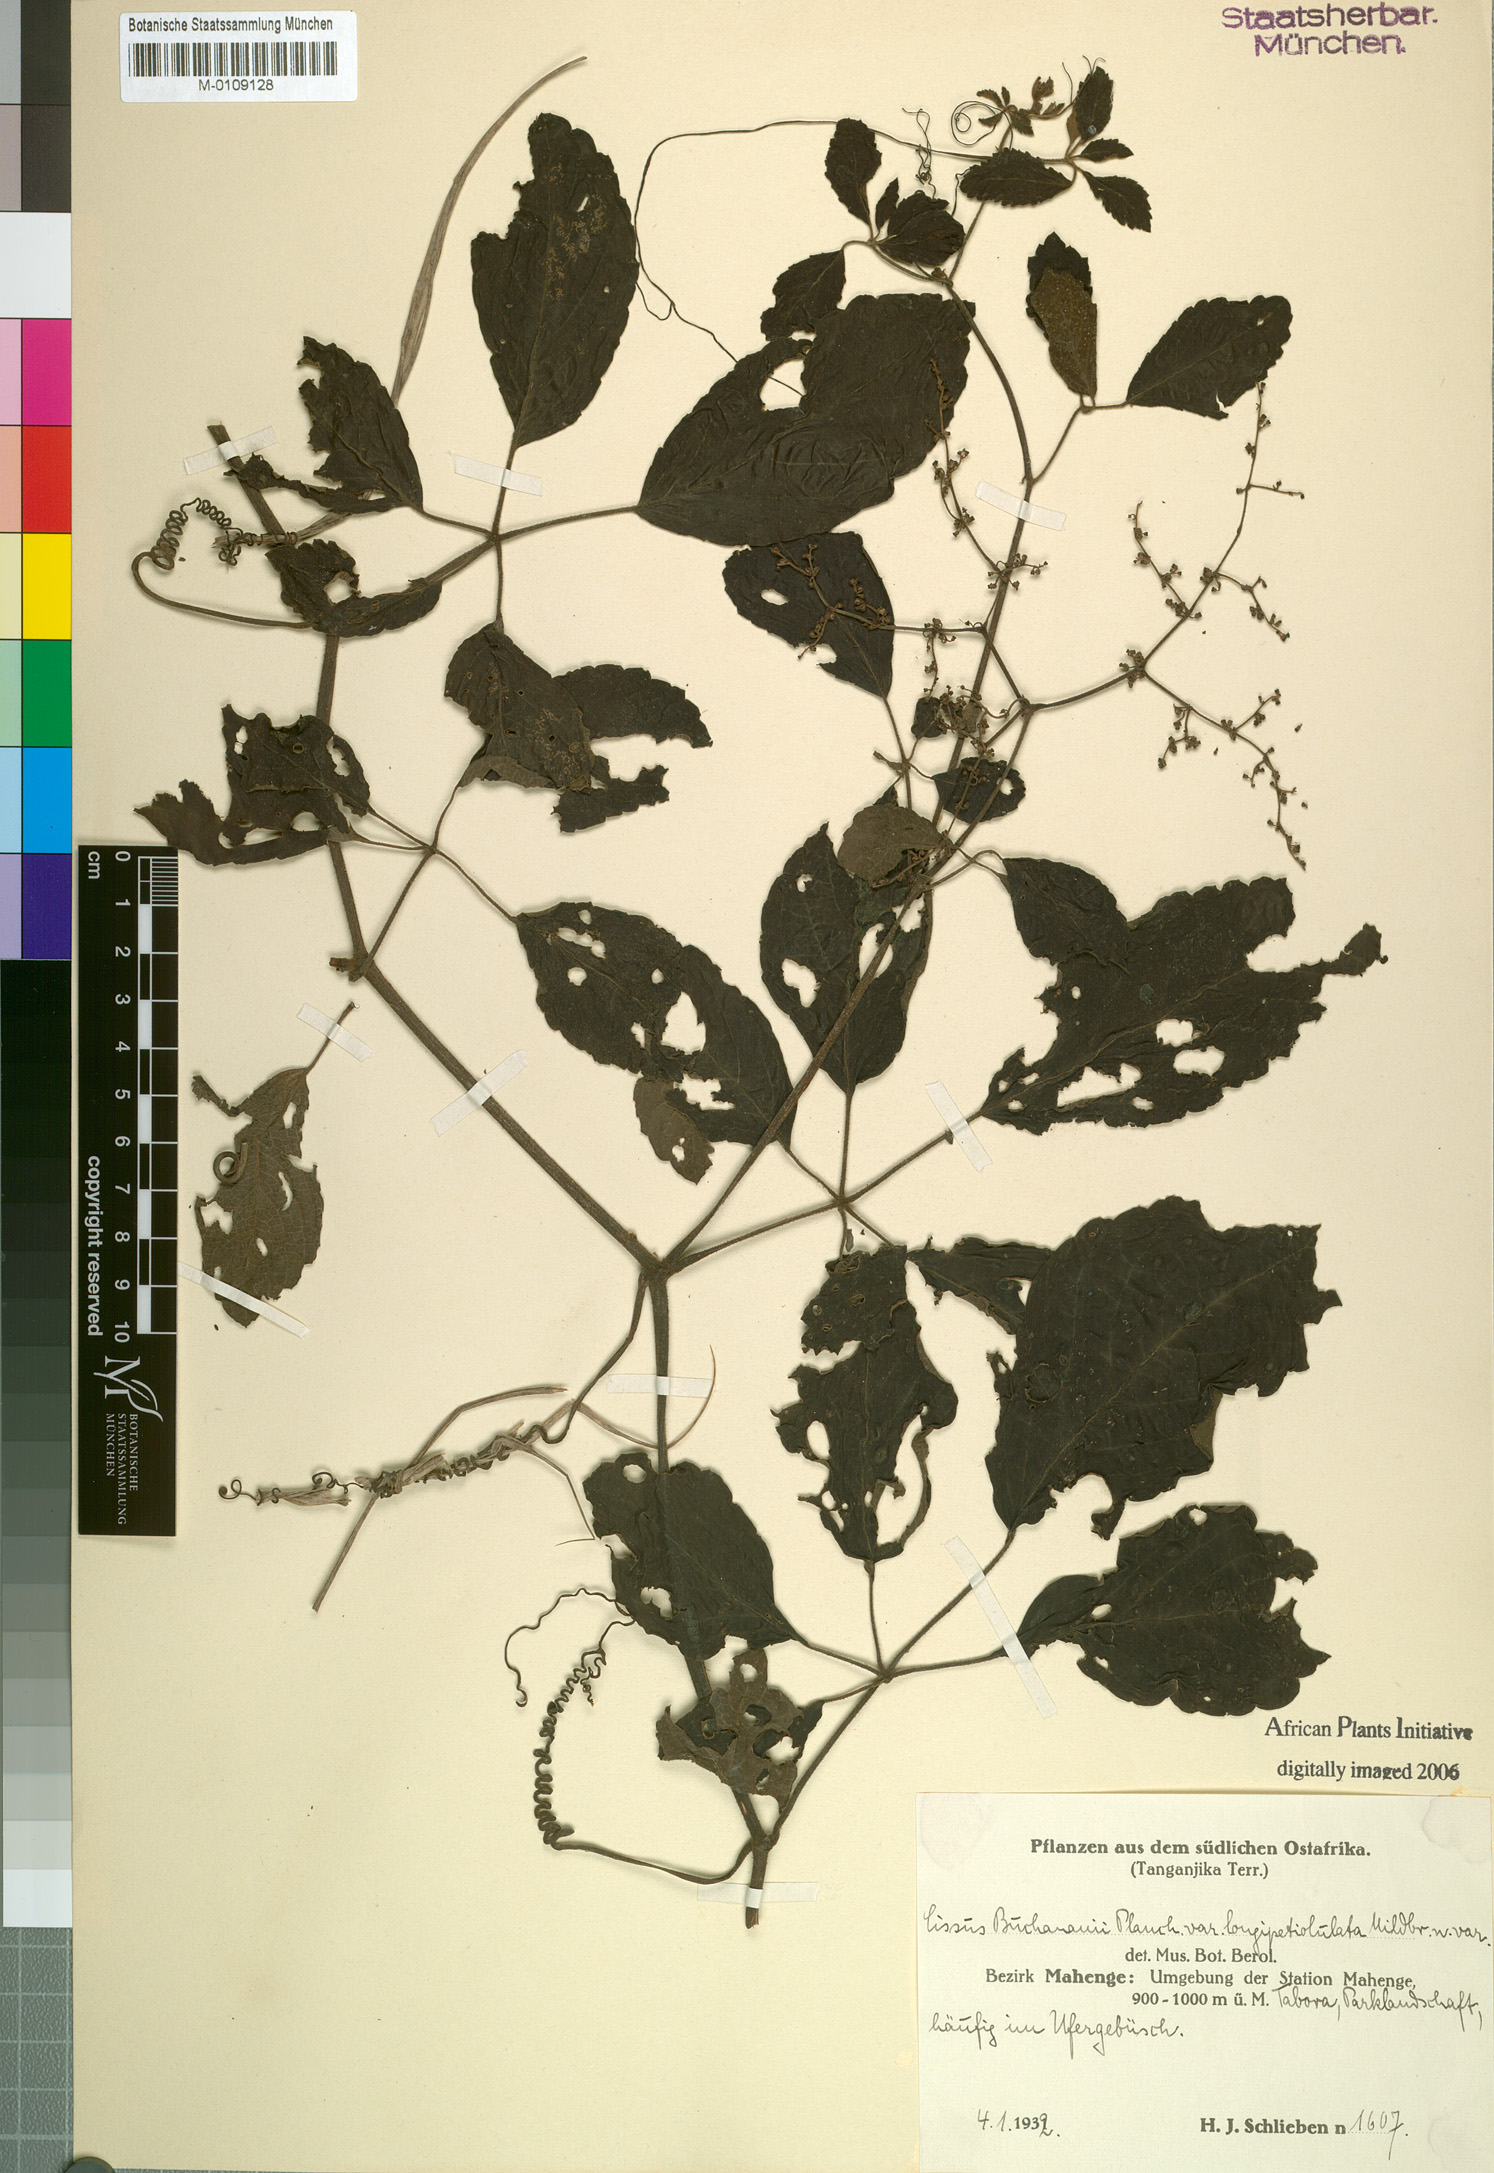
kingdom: Plantae
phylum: Tracheophyta
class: Magnoliopsida
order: Vitales
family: Vitaceae
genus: Cyphostemma
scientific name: Cyphostemma buchananii
